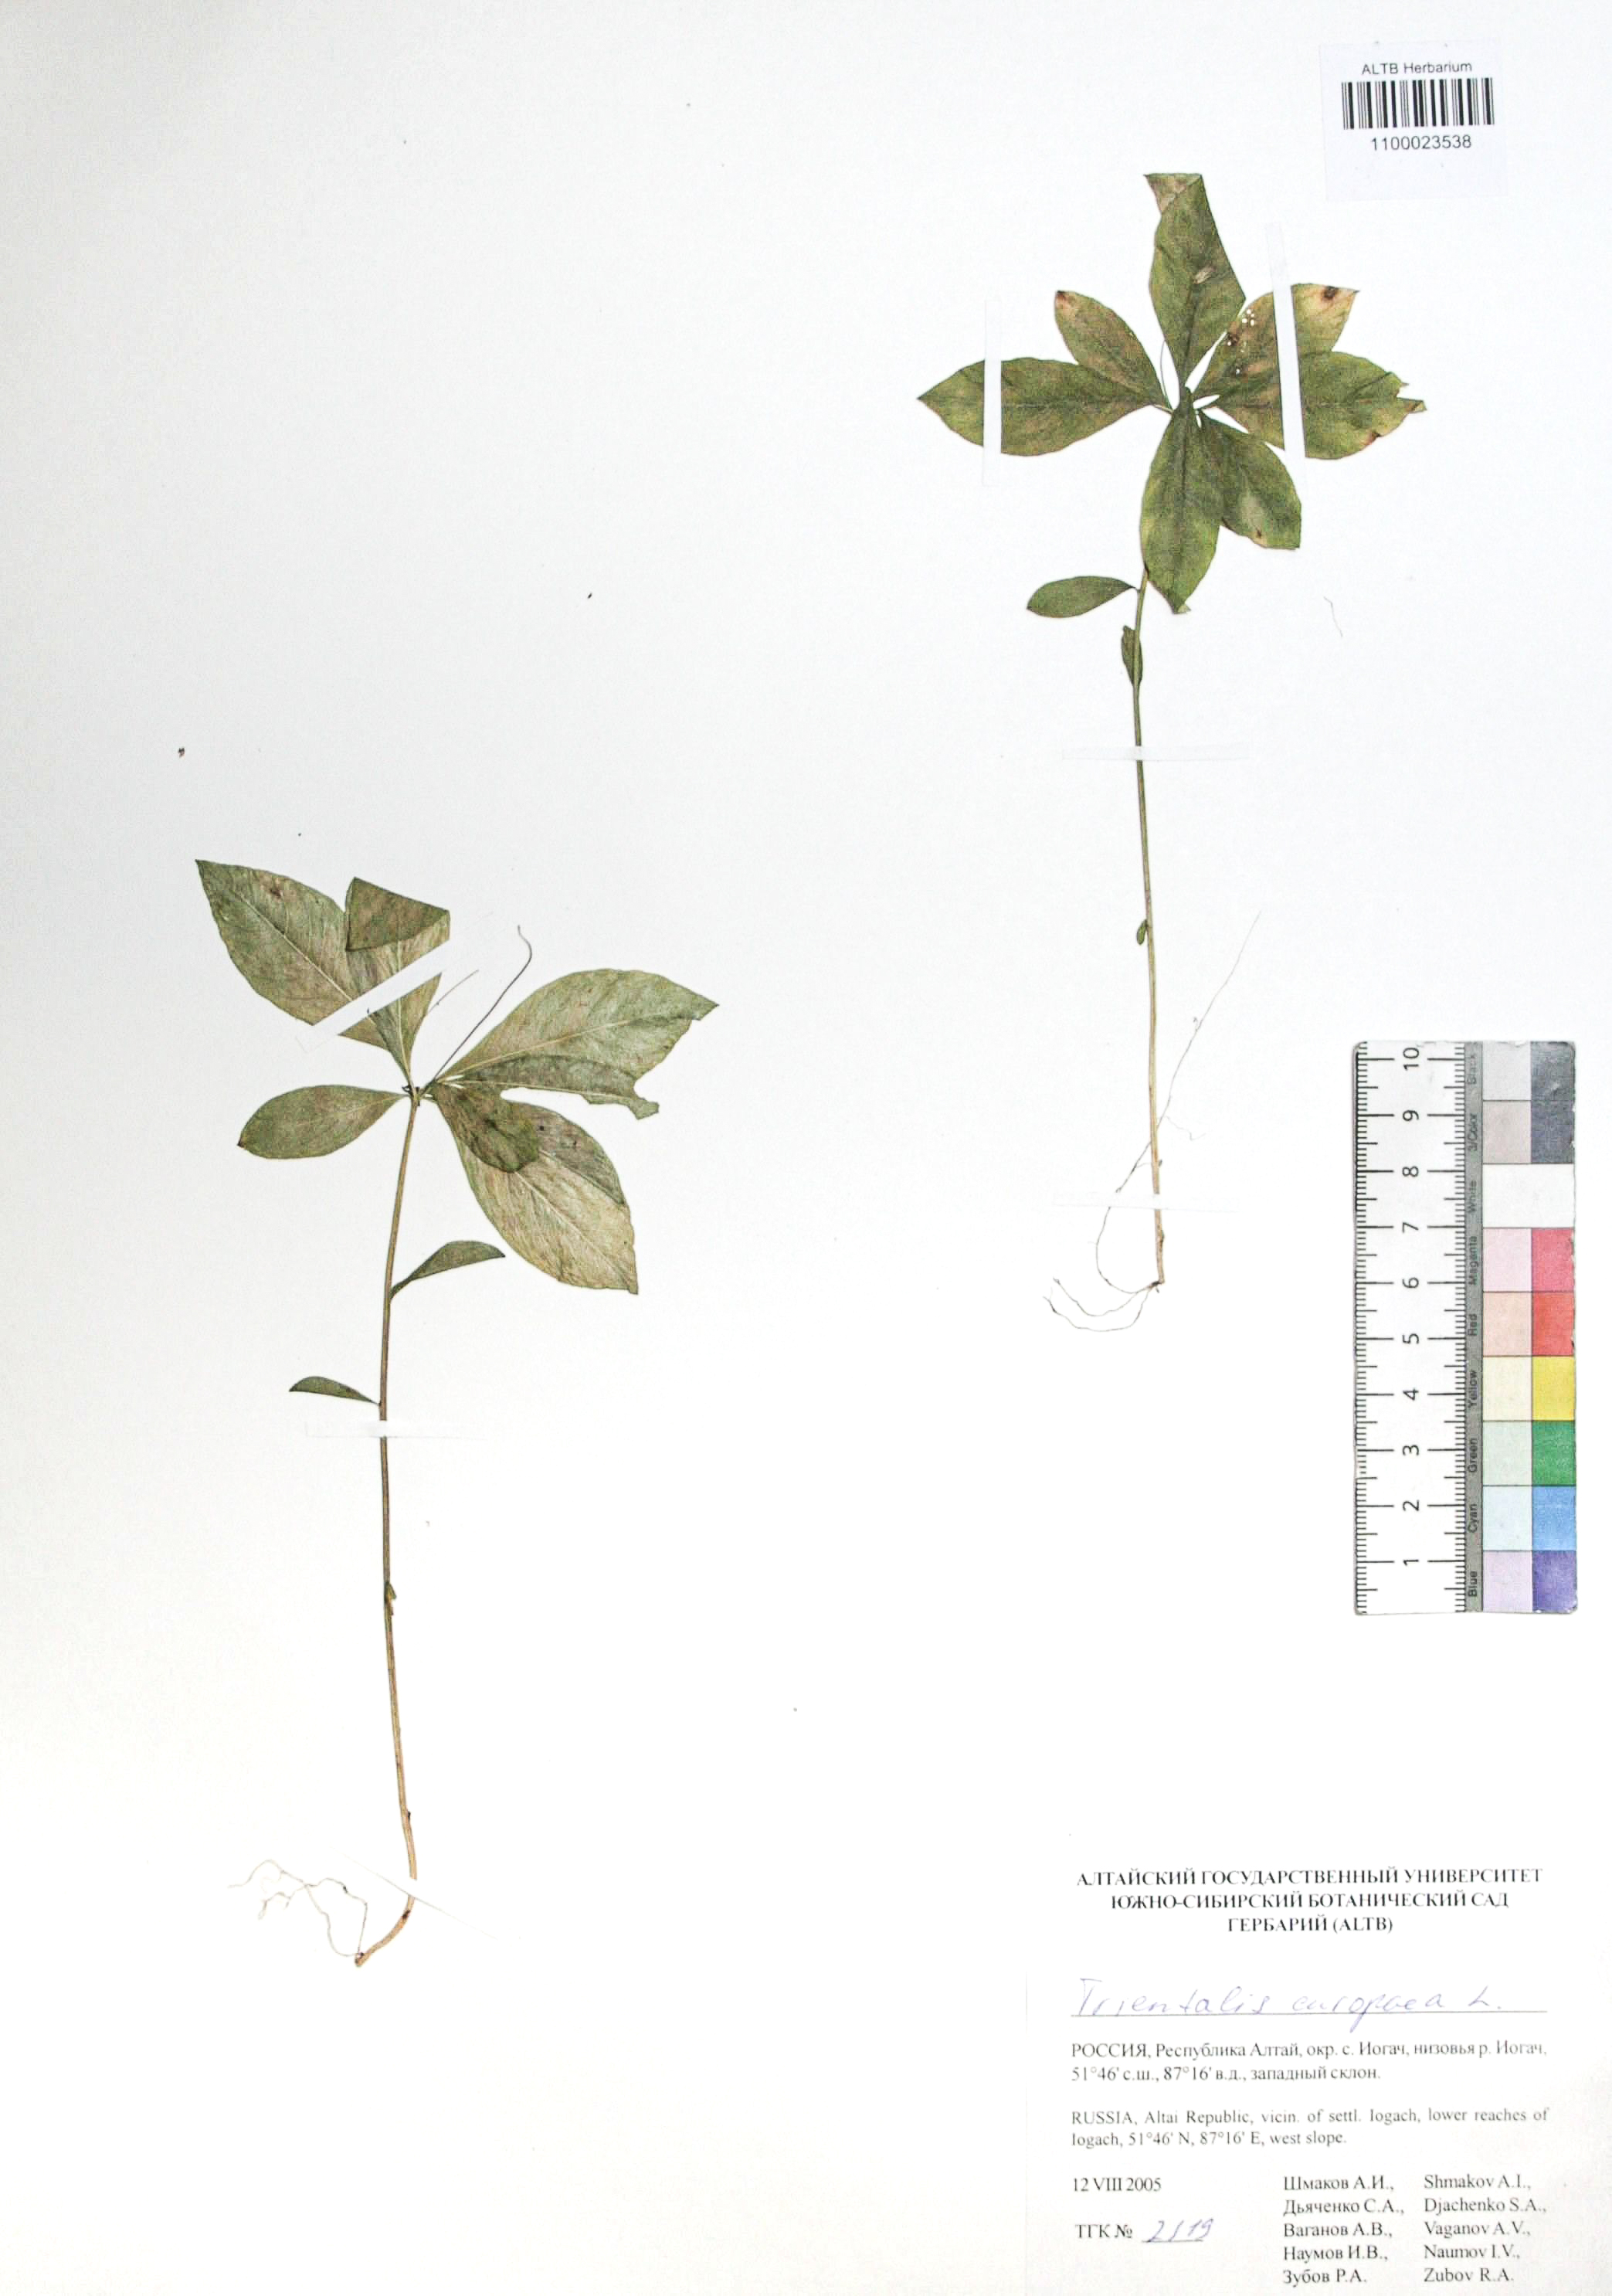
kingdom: Plantae
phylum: Tracheophyta
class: Magnoliopsida
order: Ericales
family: Primulaceae
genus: Lysimachia
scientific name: Lysimachia europaea
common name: Arctic starflower
